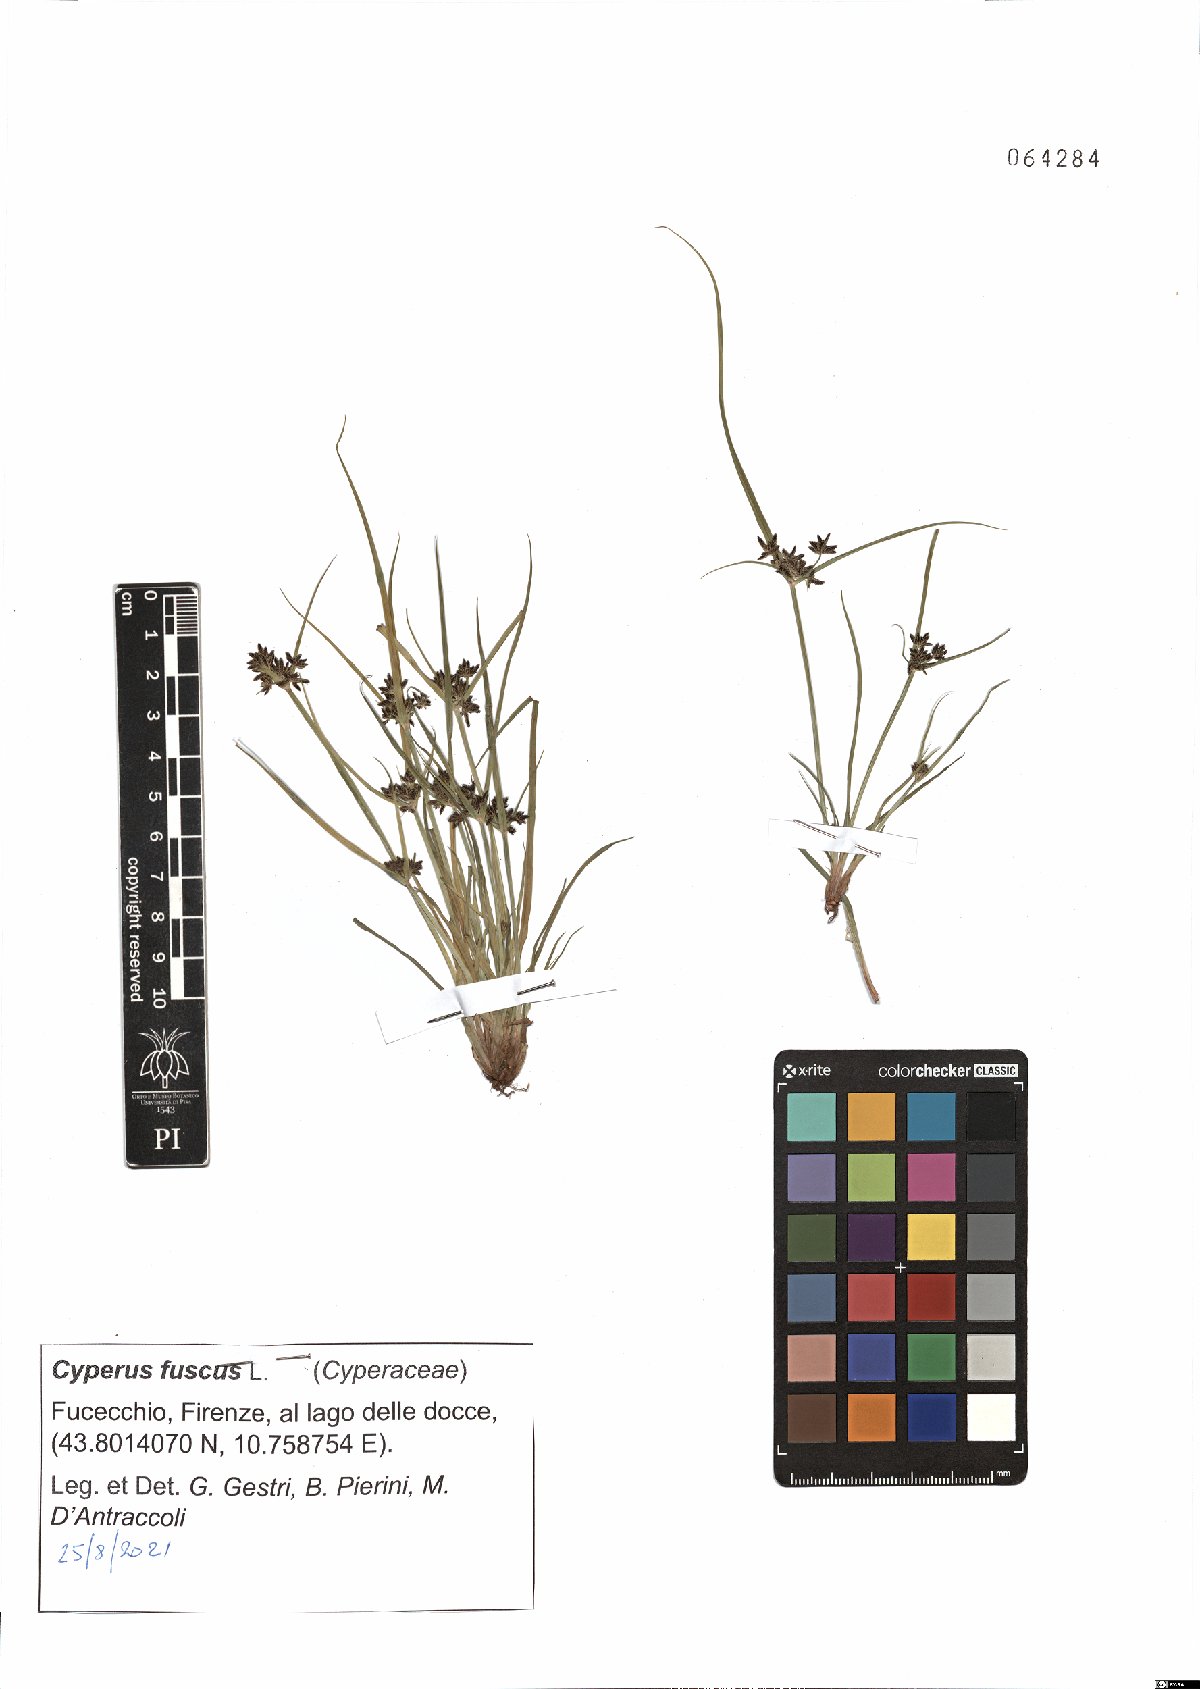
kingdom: Plantae
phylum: Tracheophyta
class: Liliopsida
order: Poales
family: Cyperaceae
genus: Cyperus
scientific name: Cyperus fuscus
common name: Brown galingale
